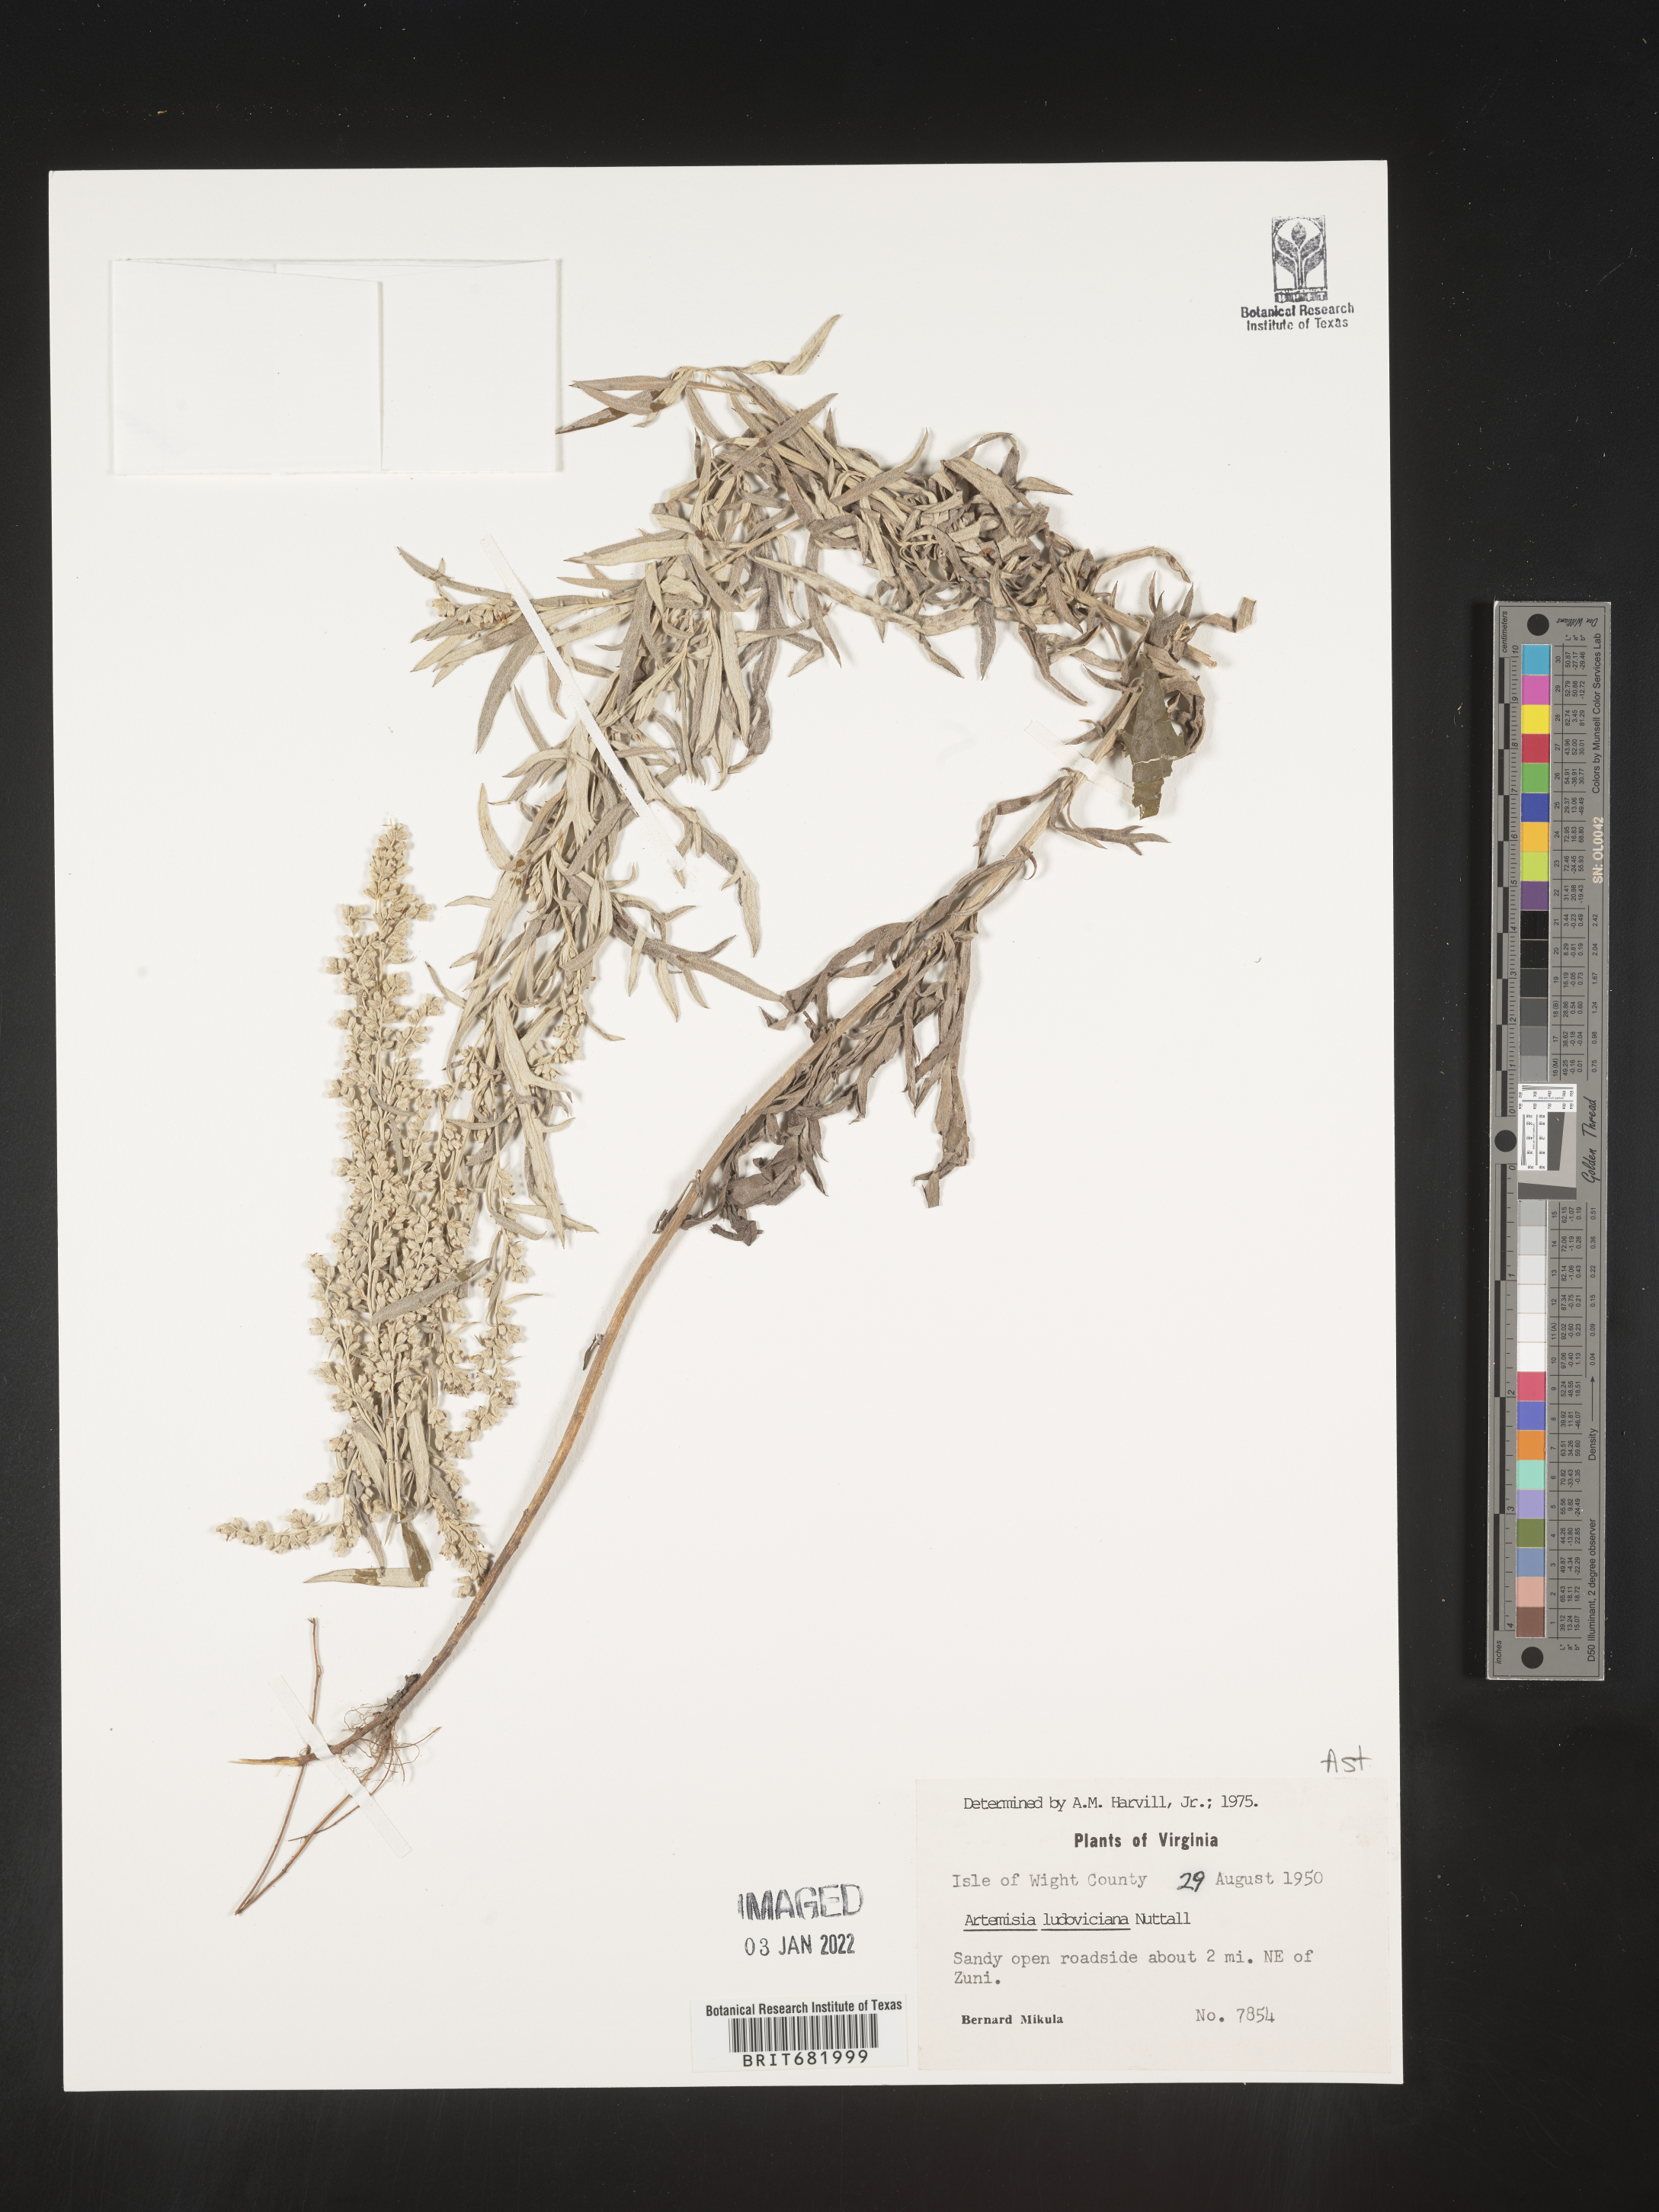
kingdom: Plantae
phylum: Tracheophyta
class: Magnoliopsida
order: Asterales
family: Asteraceae
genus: Artemisia
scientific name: Artemisia ludoviciana
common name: Western mugwort
